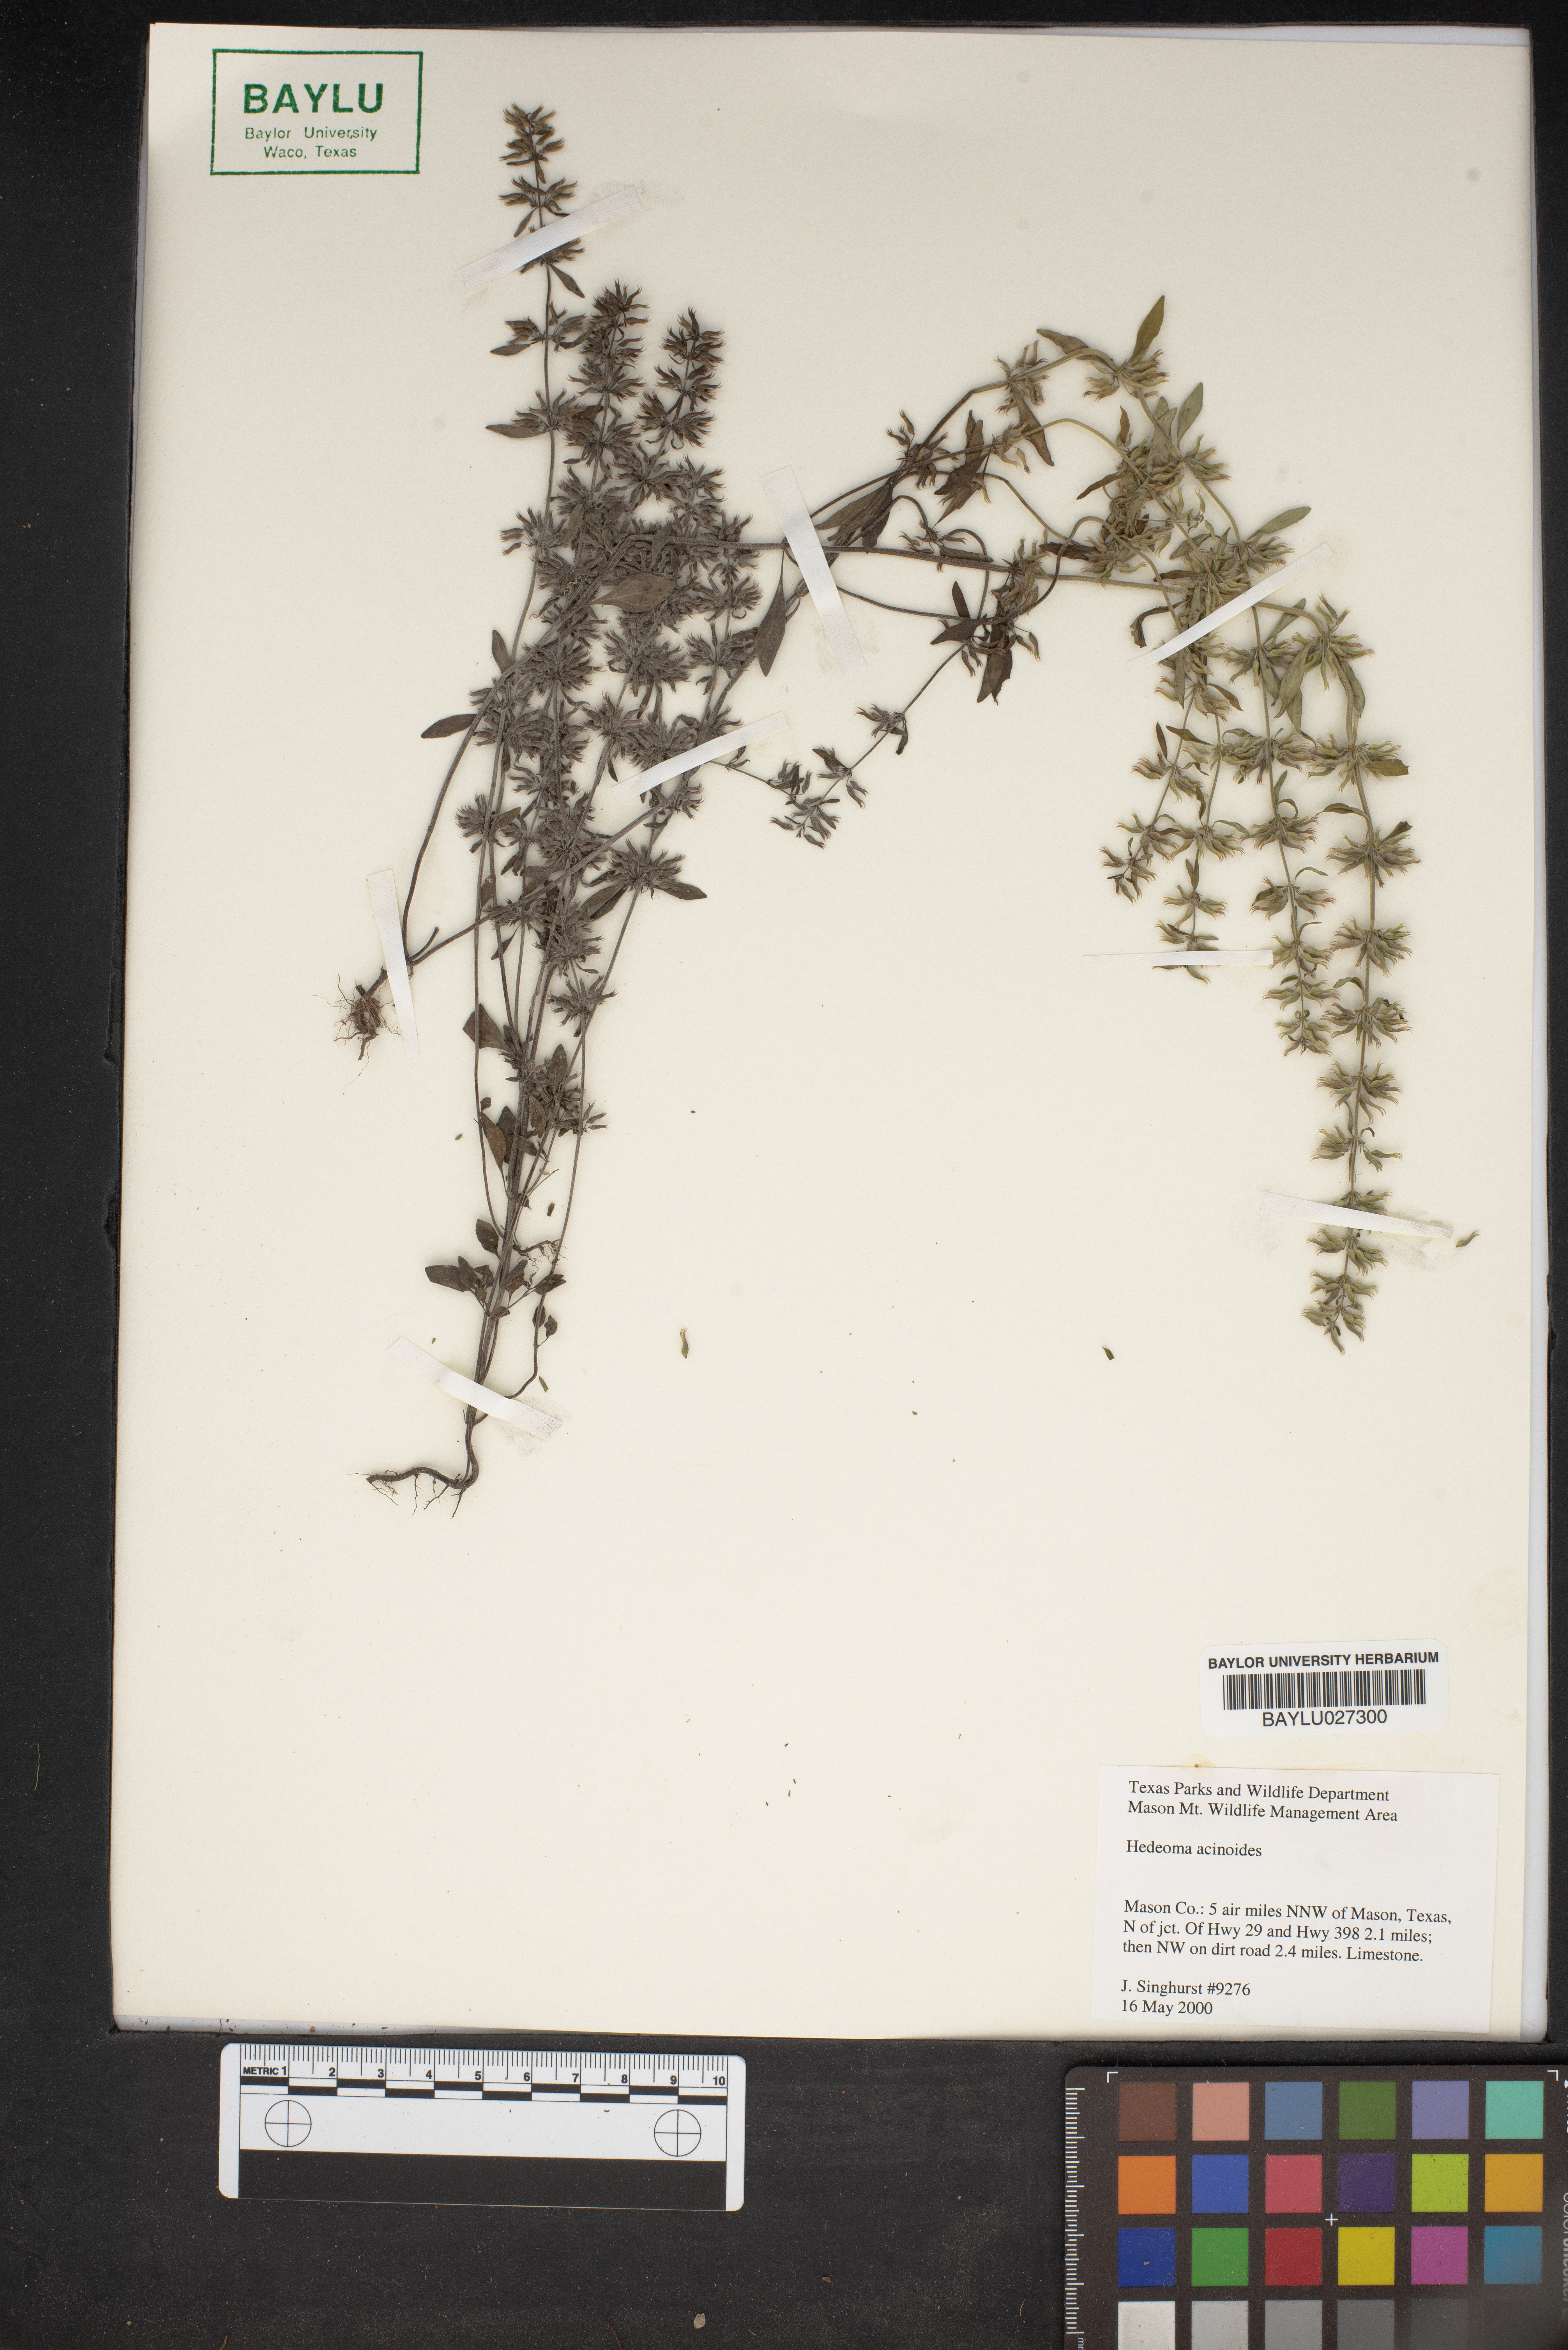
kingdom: Plantae
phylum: Tracheophyta
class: Magnoliopsida
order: Lamiales
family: Lamiaceae
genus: Hedeoma
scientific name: Hedeoma acinoides
